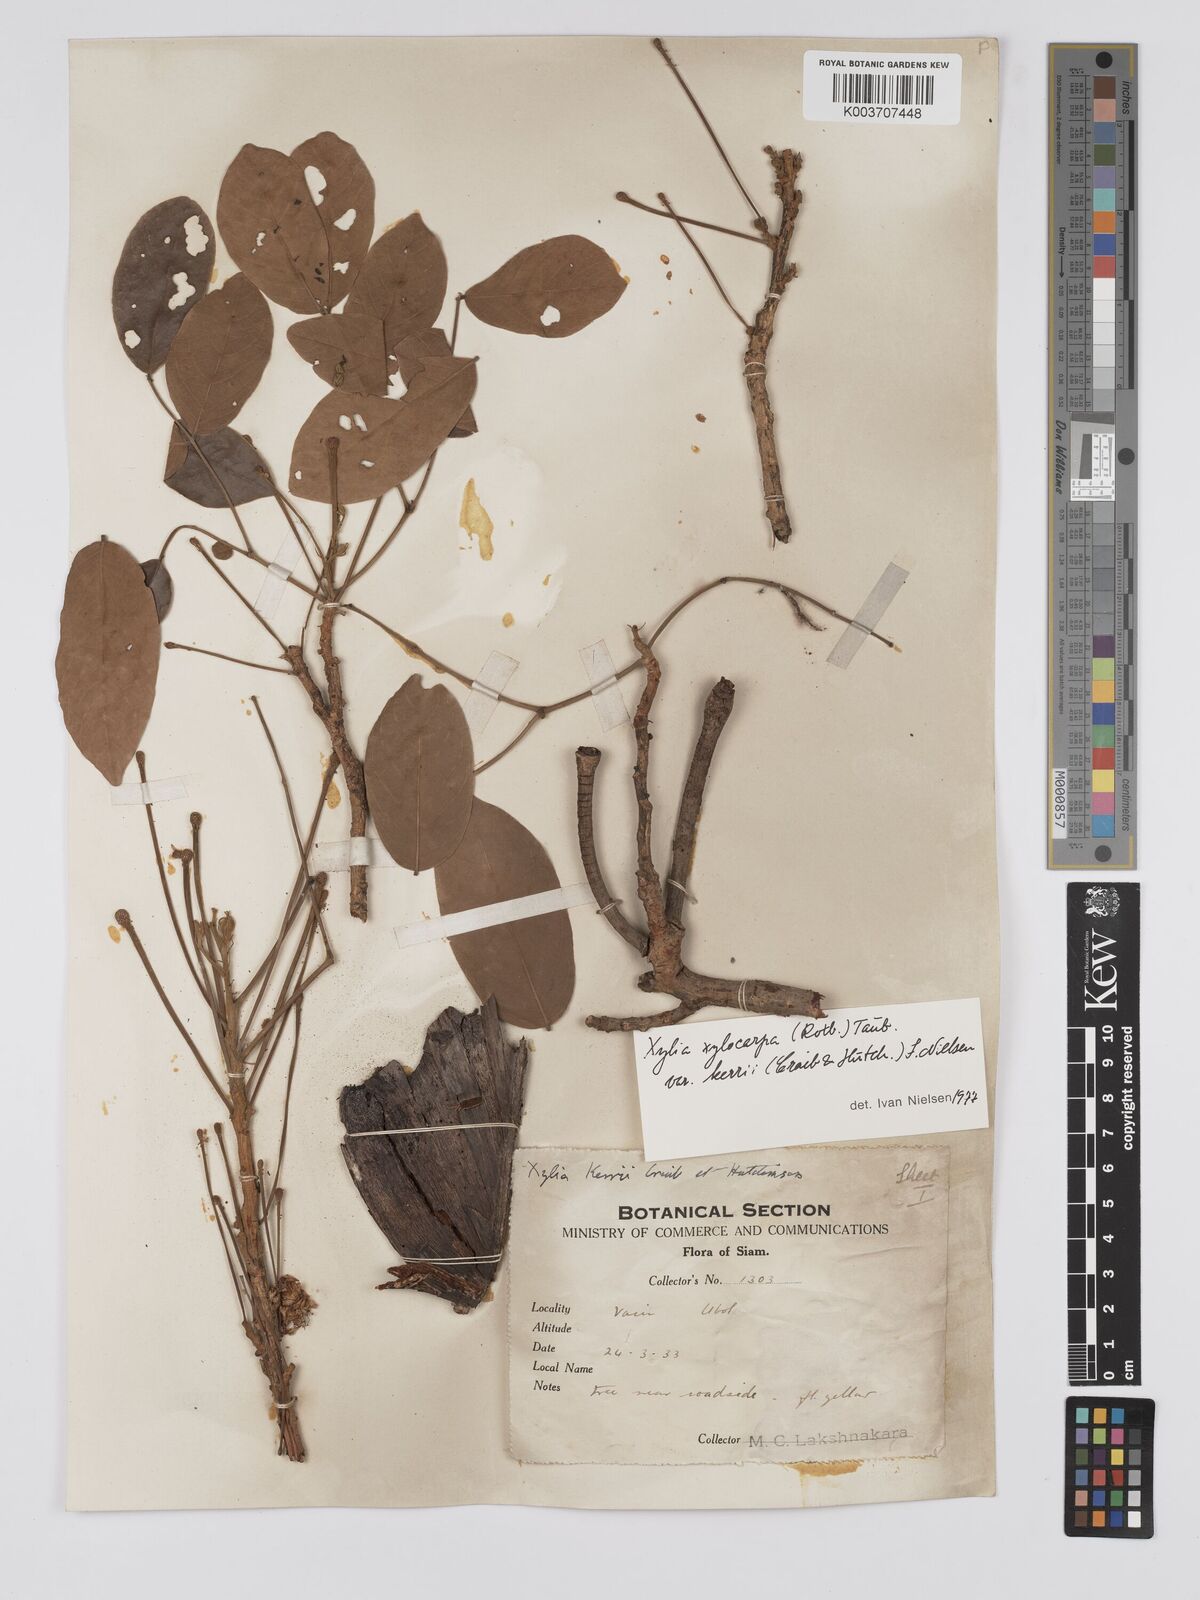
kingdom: Plantae
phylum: Tracheophyta
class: Magnoliopsida
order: Fabales
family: Fabaceae
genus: Xylia
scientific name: Xylia xylocarpa
